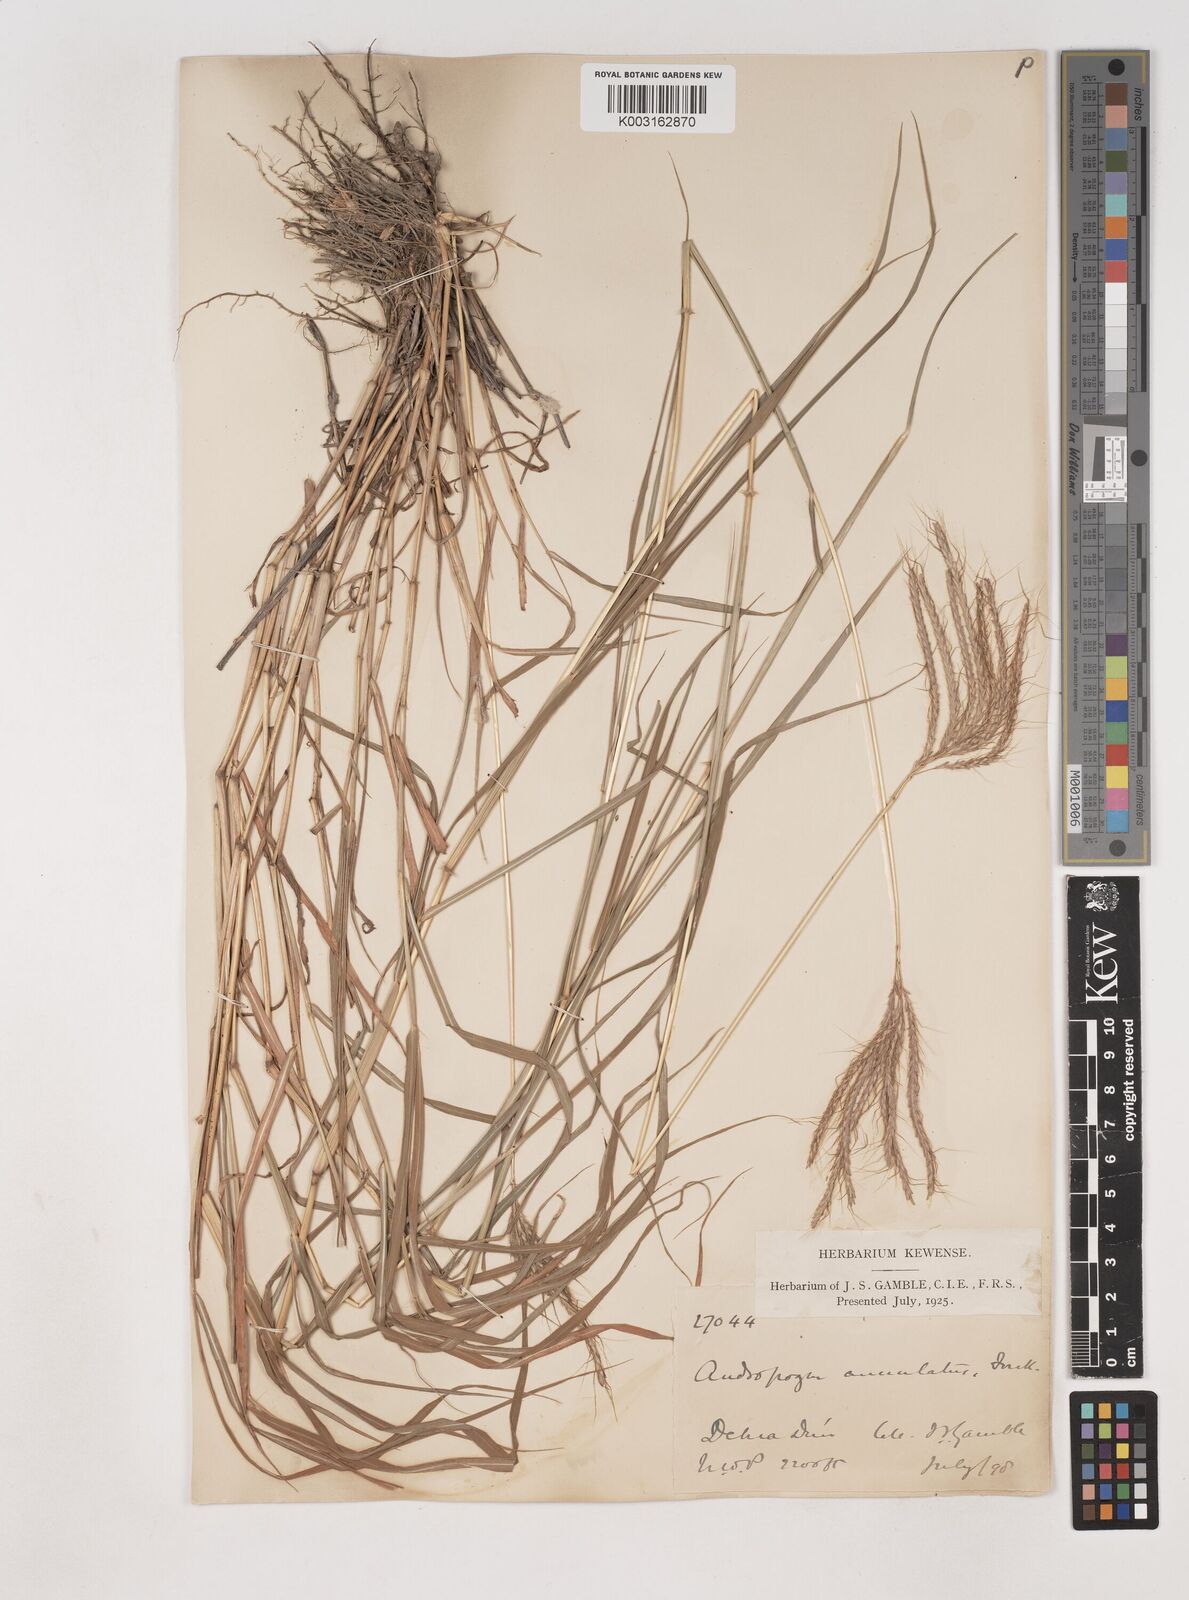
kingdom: Plantae
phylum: Tracheophyta
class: Liliopsida
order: Poales
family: Poaceae
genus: Dichanthium
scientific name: Dichanthium annulatum
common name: Kleberg's bluestem
